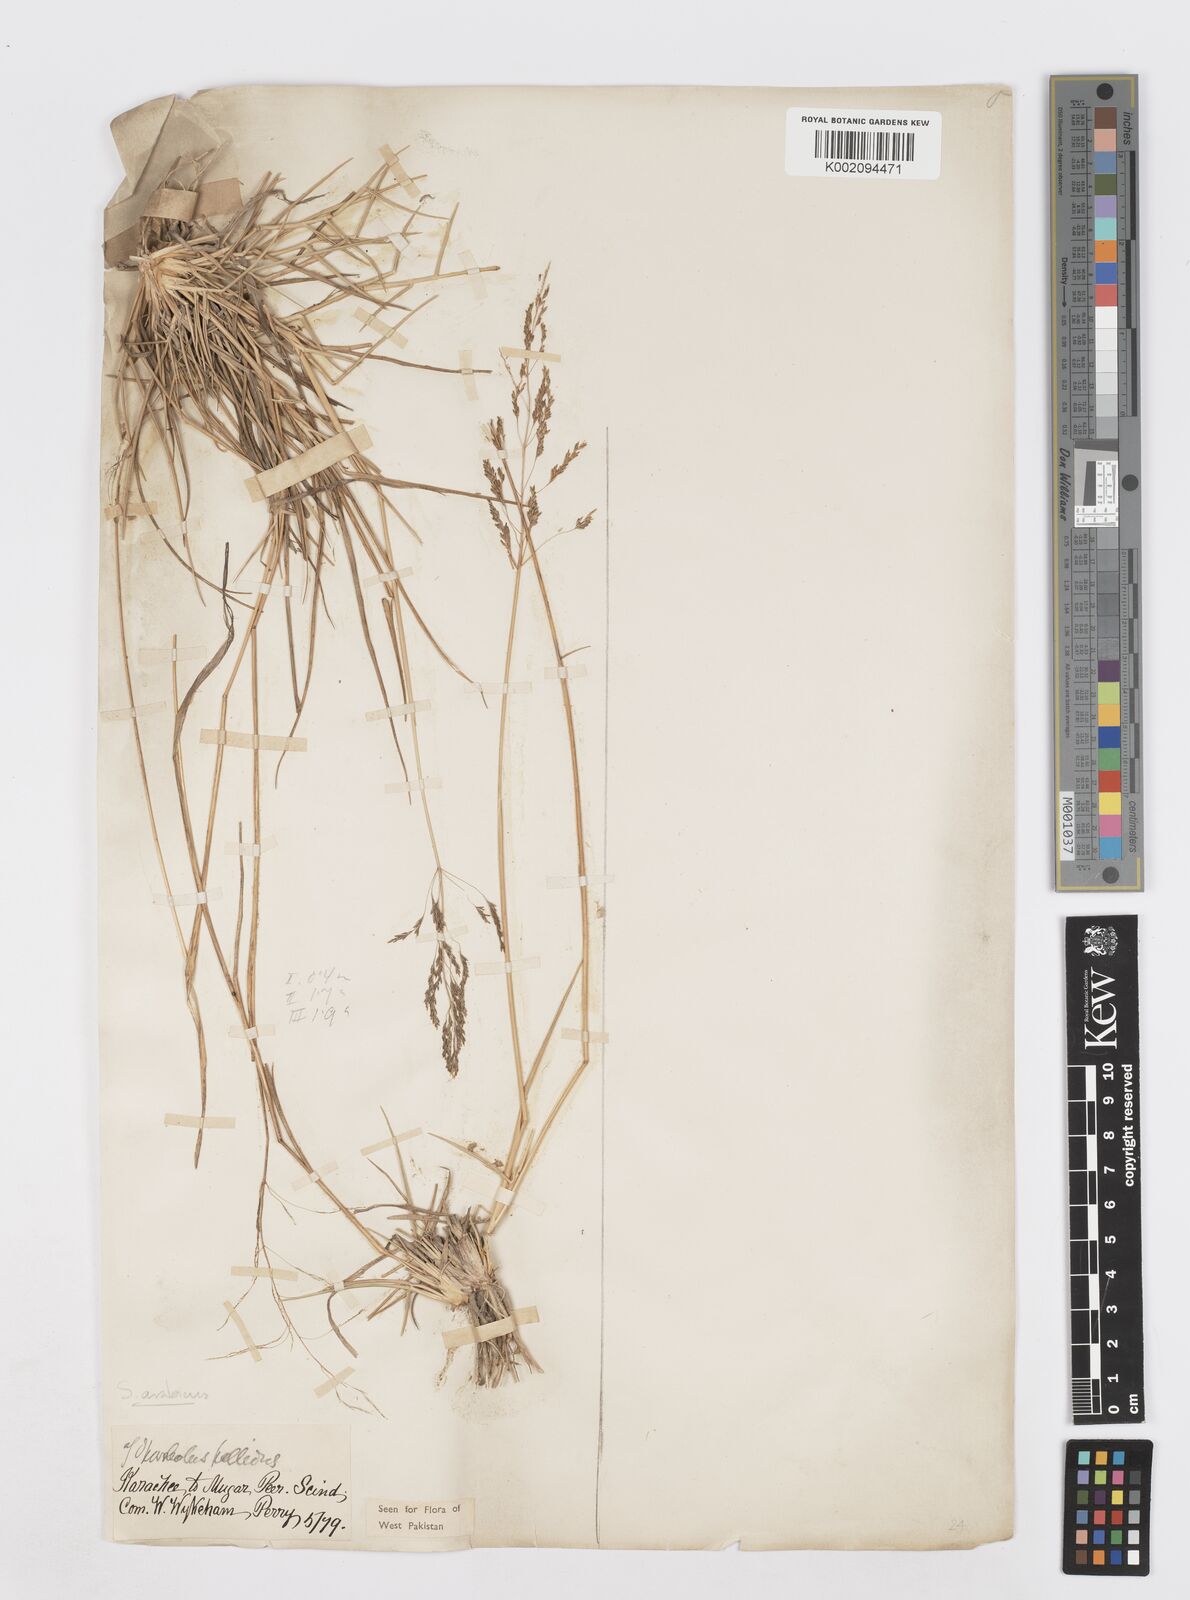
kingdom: Plantae
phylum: Tracheophyta
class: Liliopsida
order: Poales
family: Poaceae
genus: Sporobolus
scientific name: Sporobolus ioclados
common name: Pan dropseed
